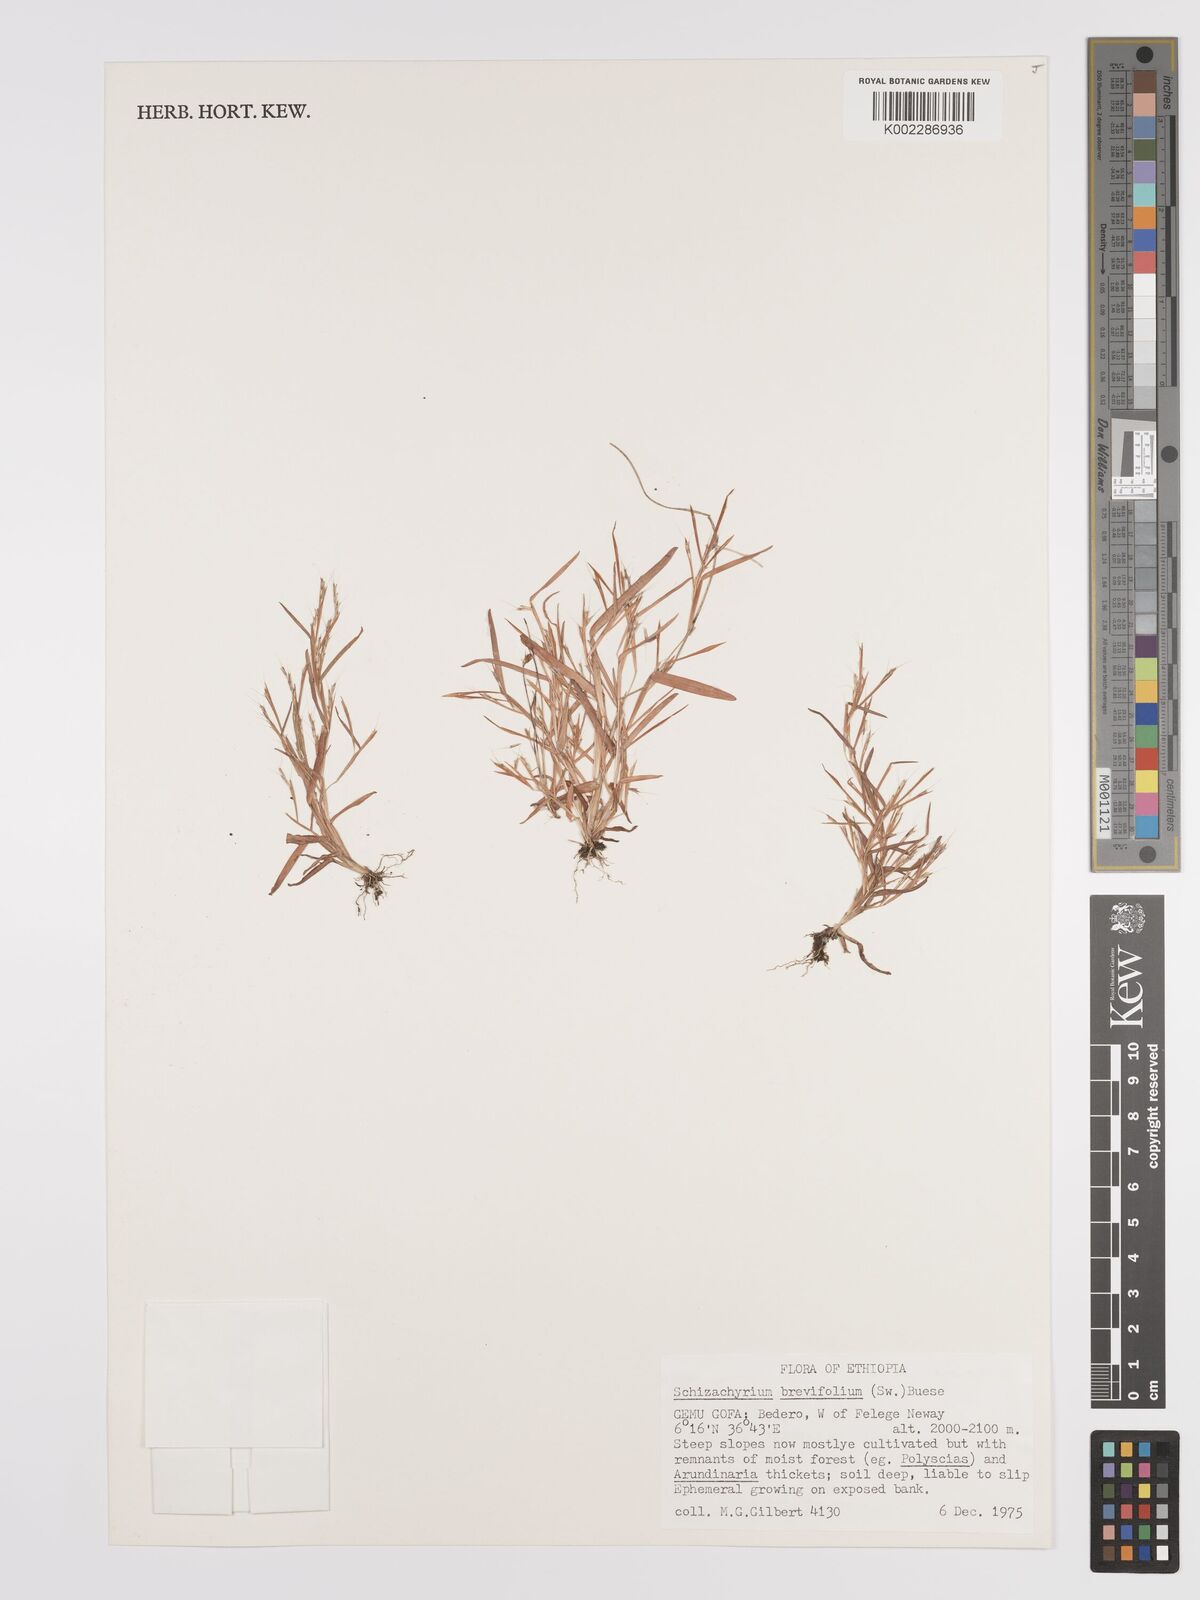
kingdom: Plantae
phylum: Tracheophyta
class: Liliopsida
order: Poales
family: Poaceae
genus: Schizachyrium
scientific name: Schizachyrium brevifolium
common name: Serillo dulce
